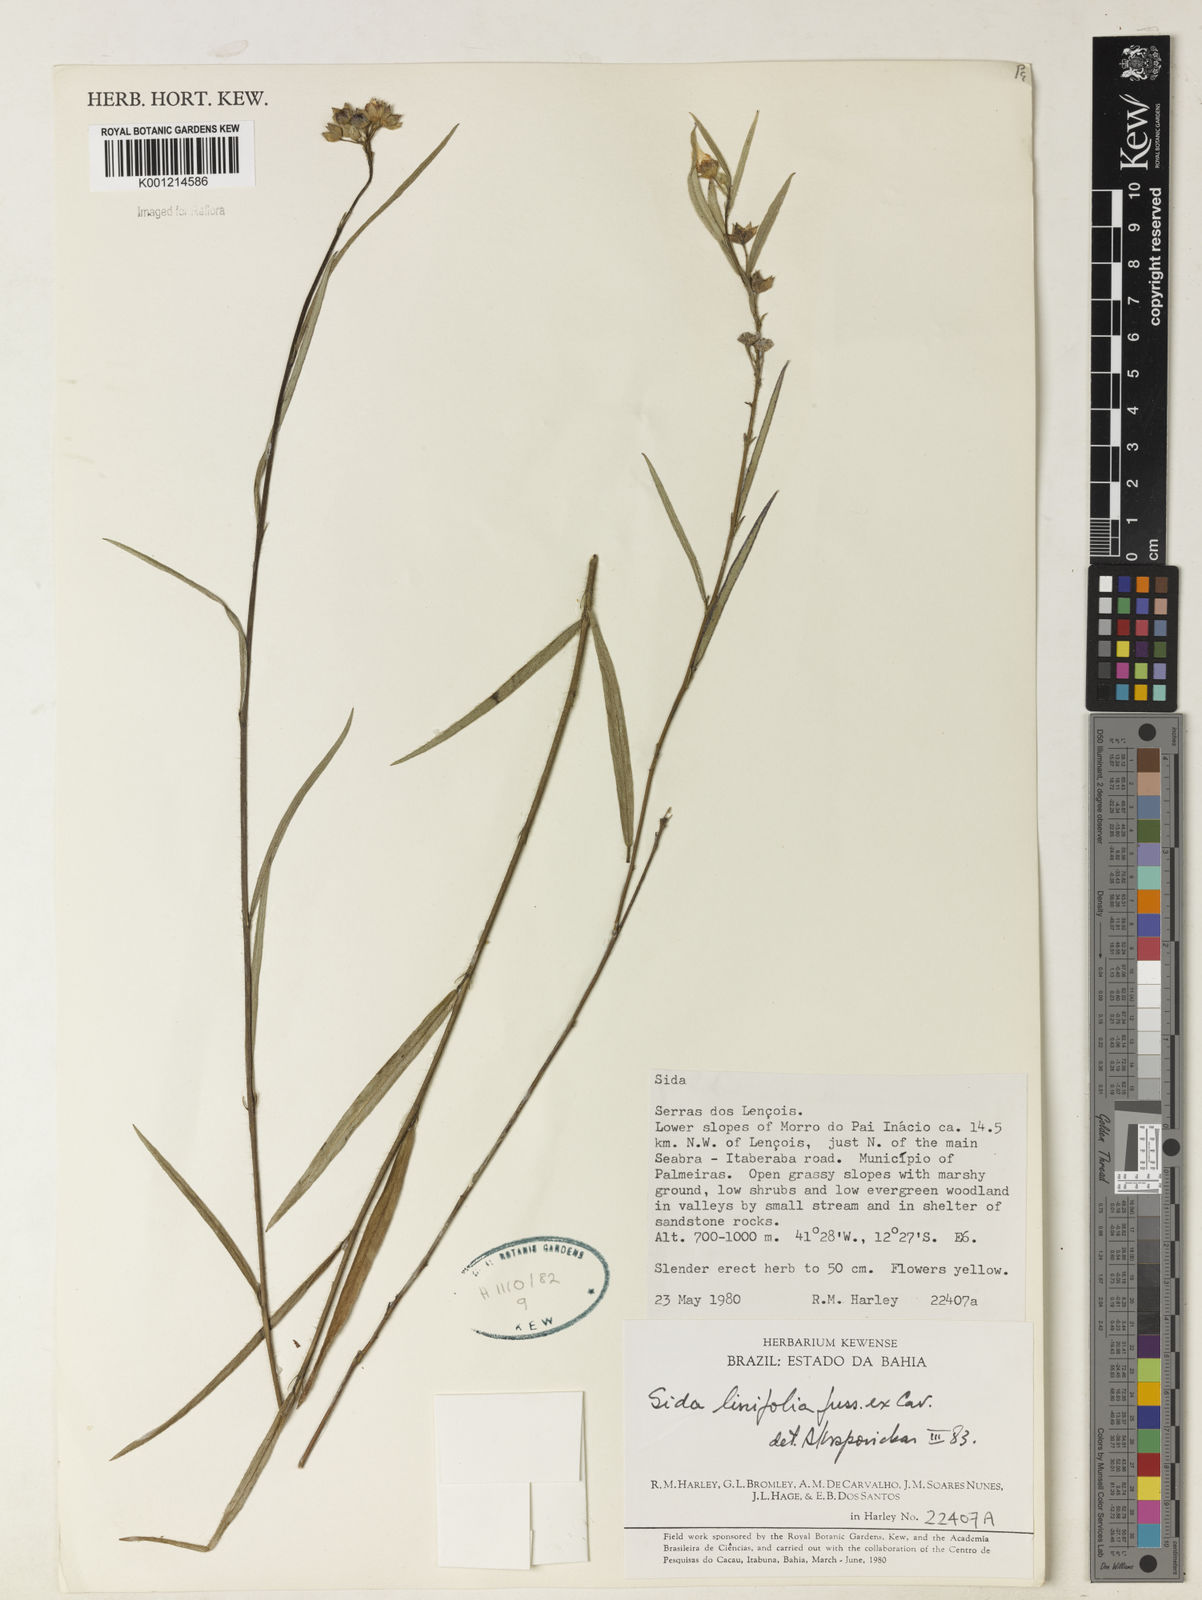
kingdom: Plantae
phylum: Tracheophyta
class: Magnoliopsida
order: Malvales
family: Malvaceae
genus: Sida
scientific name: Sida linifolia
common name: Flaxleaf fanpetals
